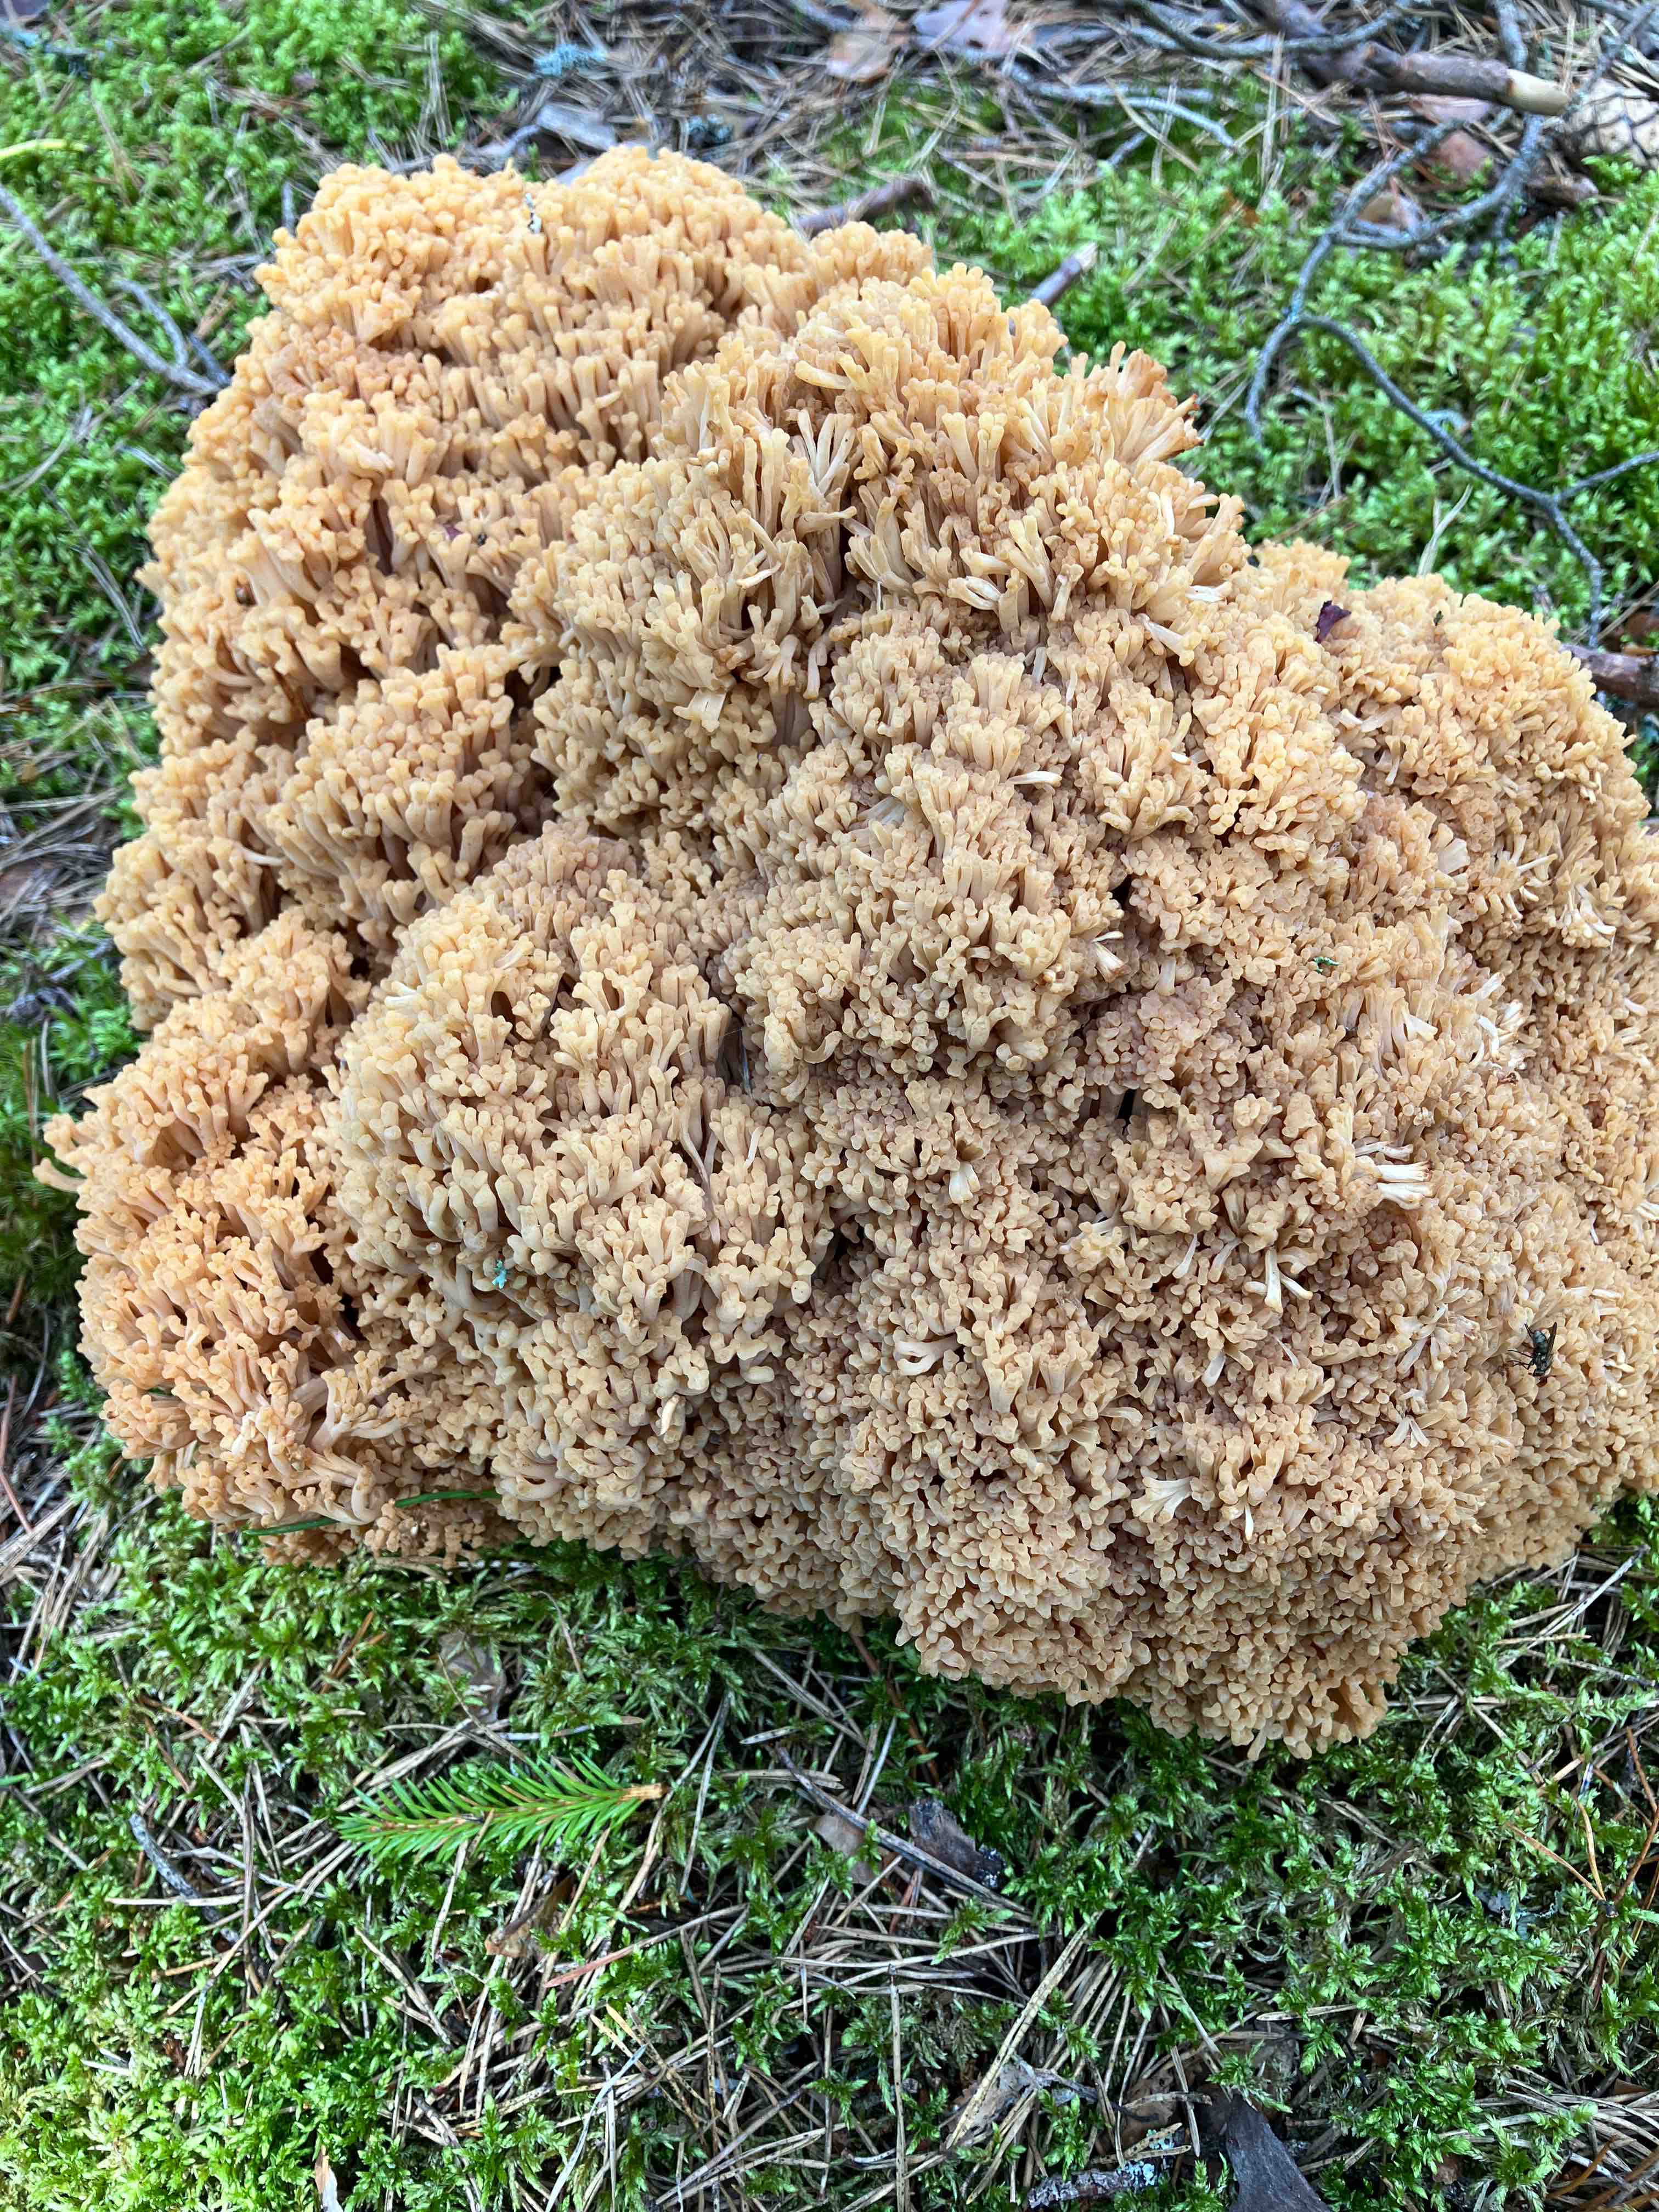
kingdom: Fungi
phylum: Basidiomycota
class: Agaricomycetes
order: Gomphales
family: Gomphaceae
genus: Ramaria
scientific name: Ramaria
